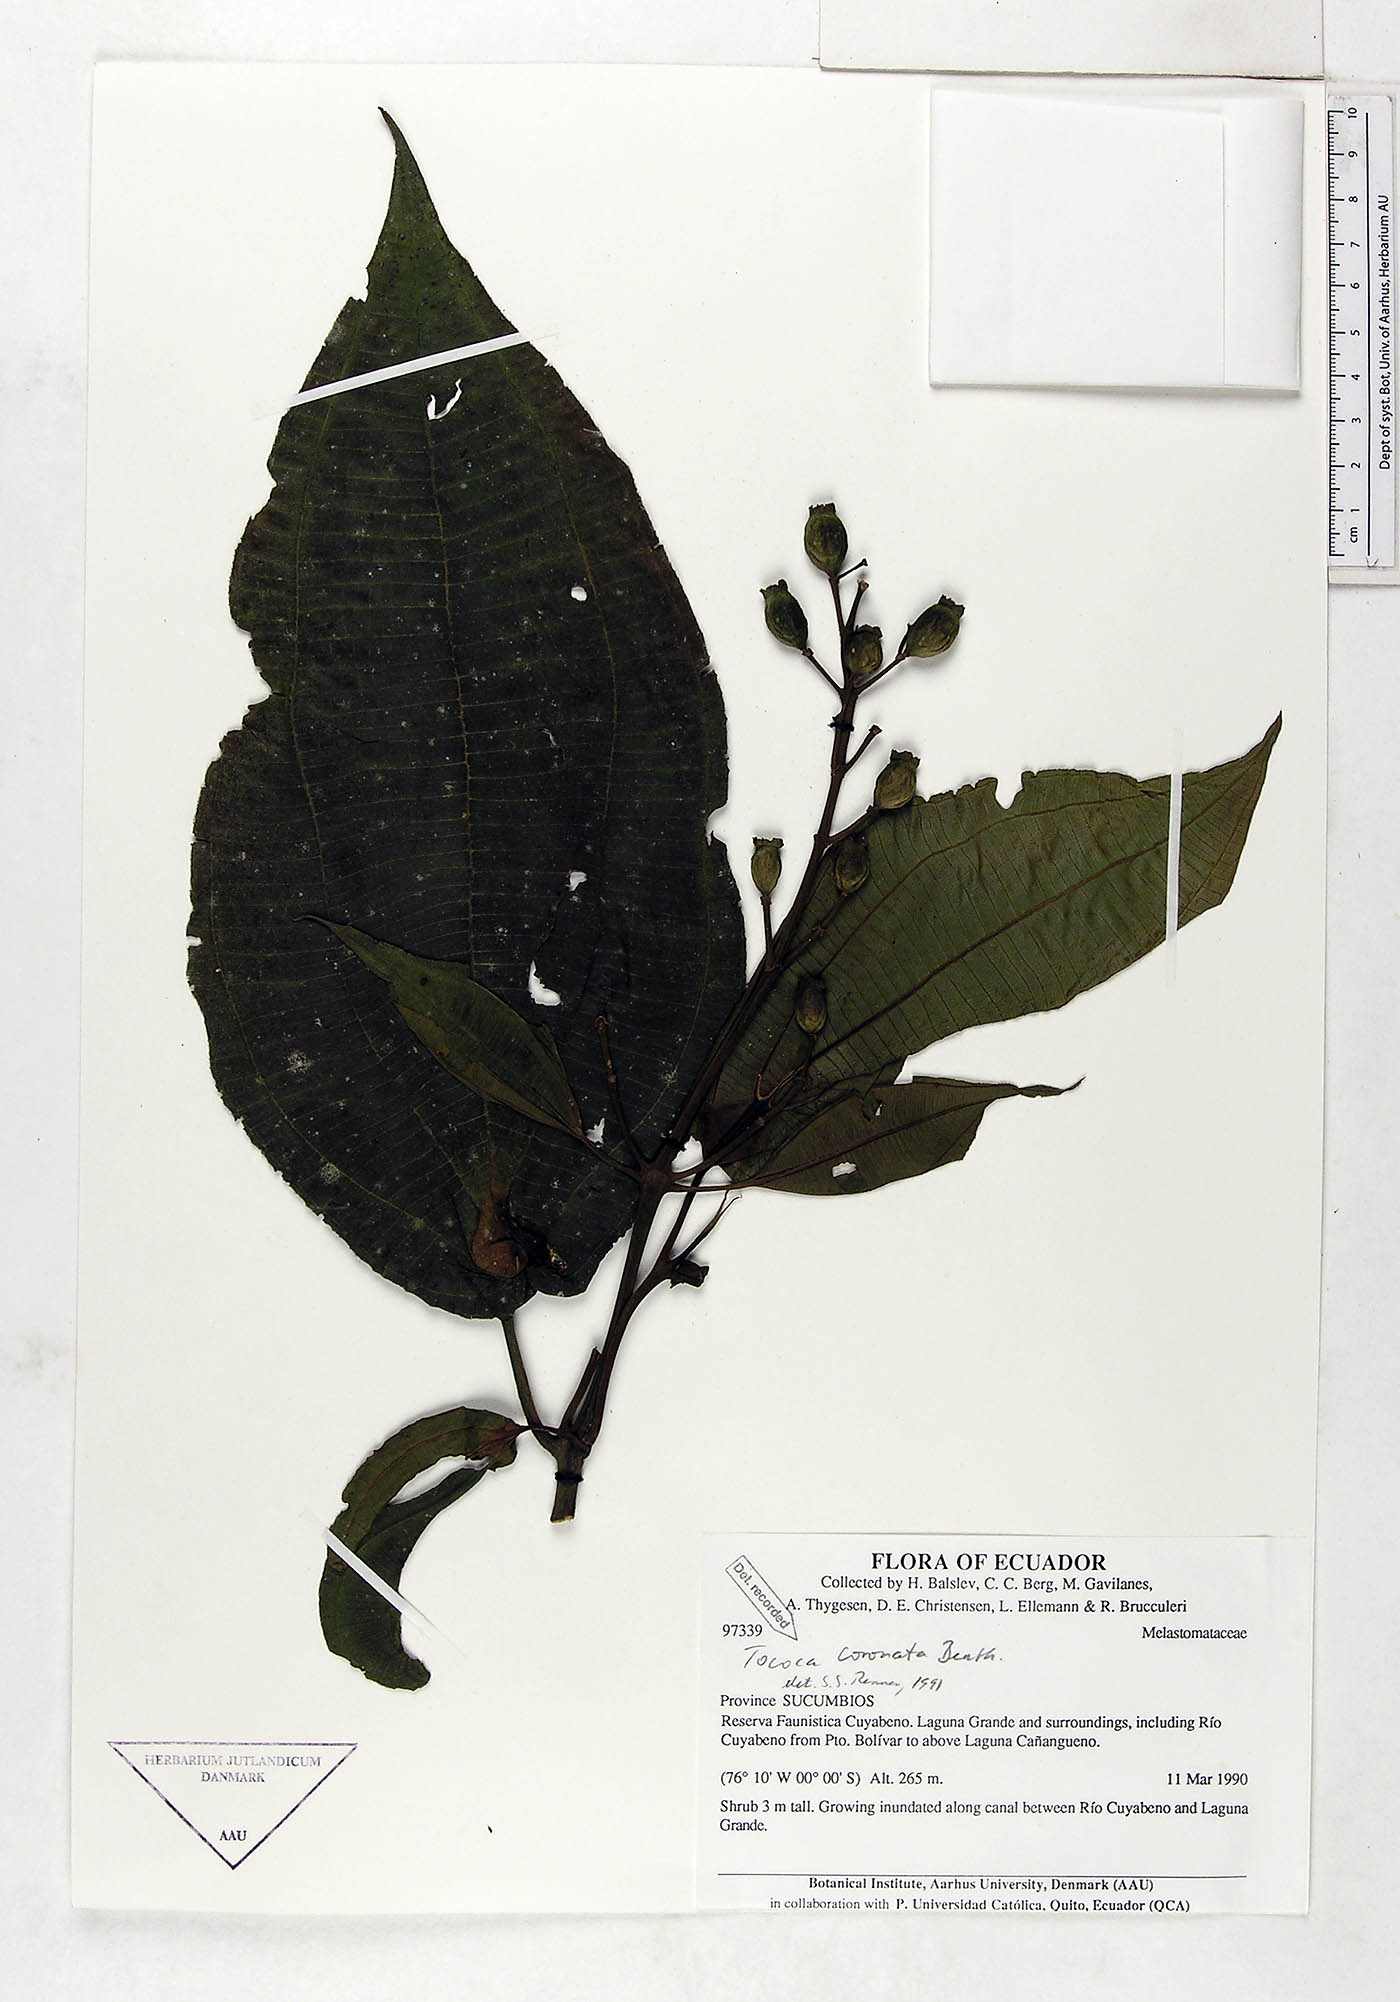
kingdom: Plantae
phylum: Tracheophyta
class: Magnoliopsida
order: Myrtales
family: Melastomataceae
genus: Miconia
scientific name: Miconia tococoronata
